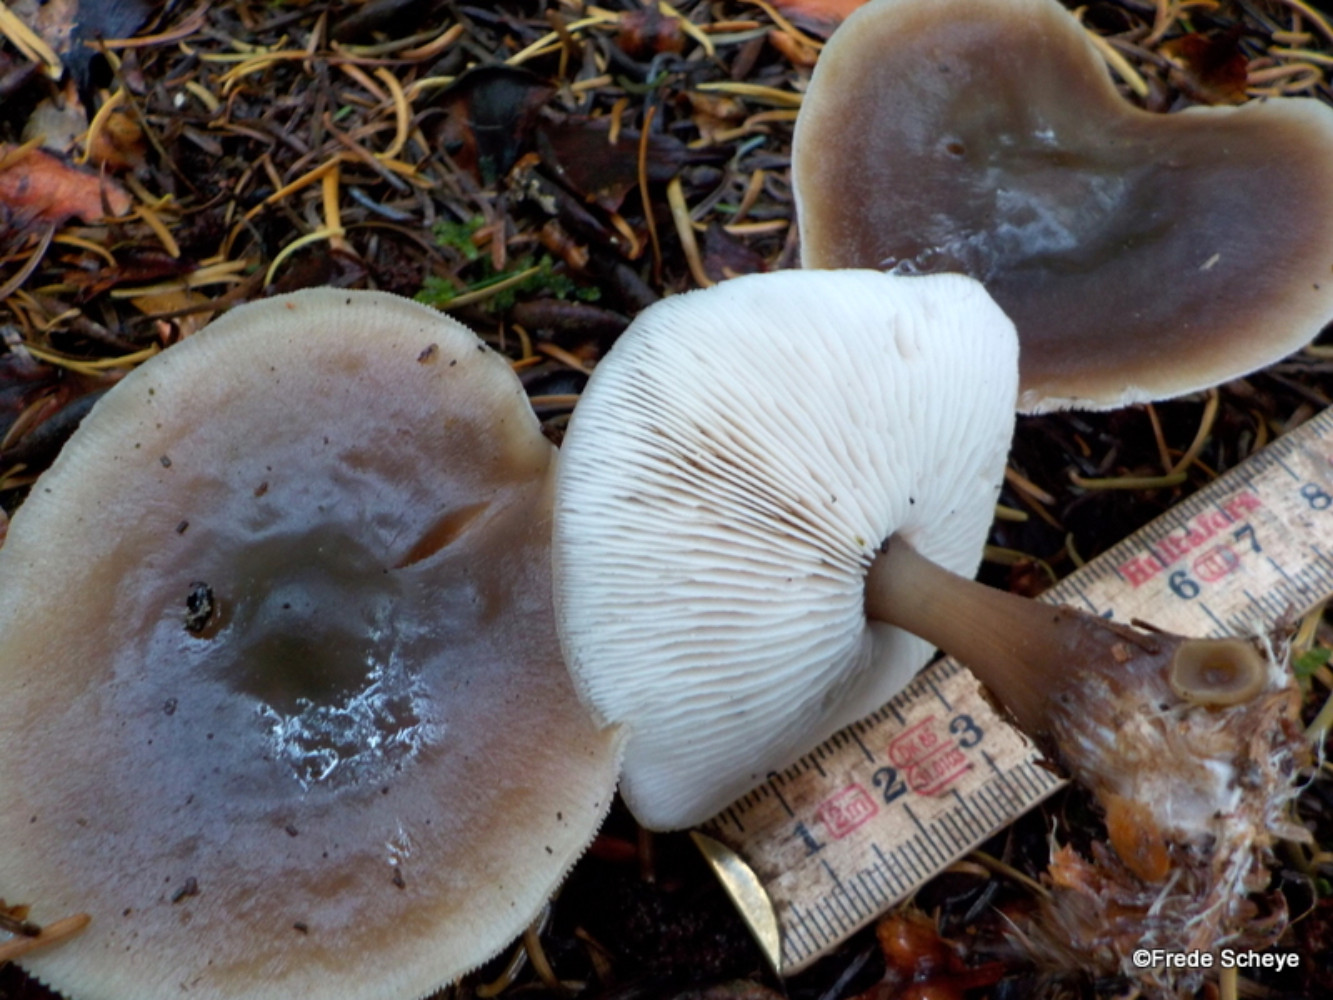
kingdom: Fungi
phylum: Basidiomycota
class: Agaricomycetes
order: Agaricales
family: Omphalotaceae
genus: Rhodocollybia
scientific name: Rhodocollybia asema
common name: horngrå fladhat
